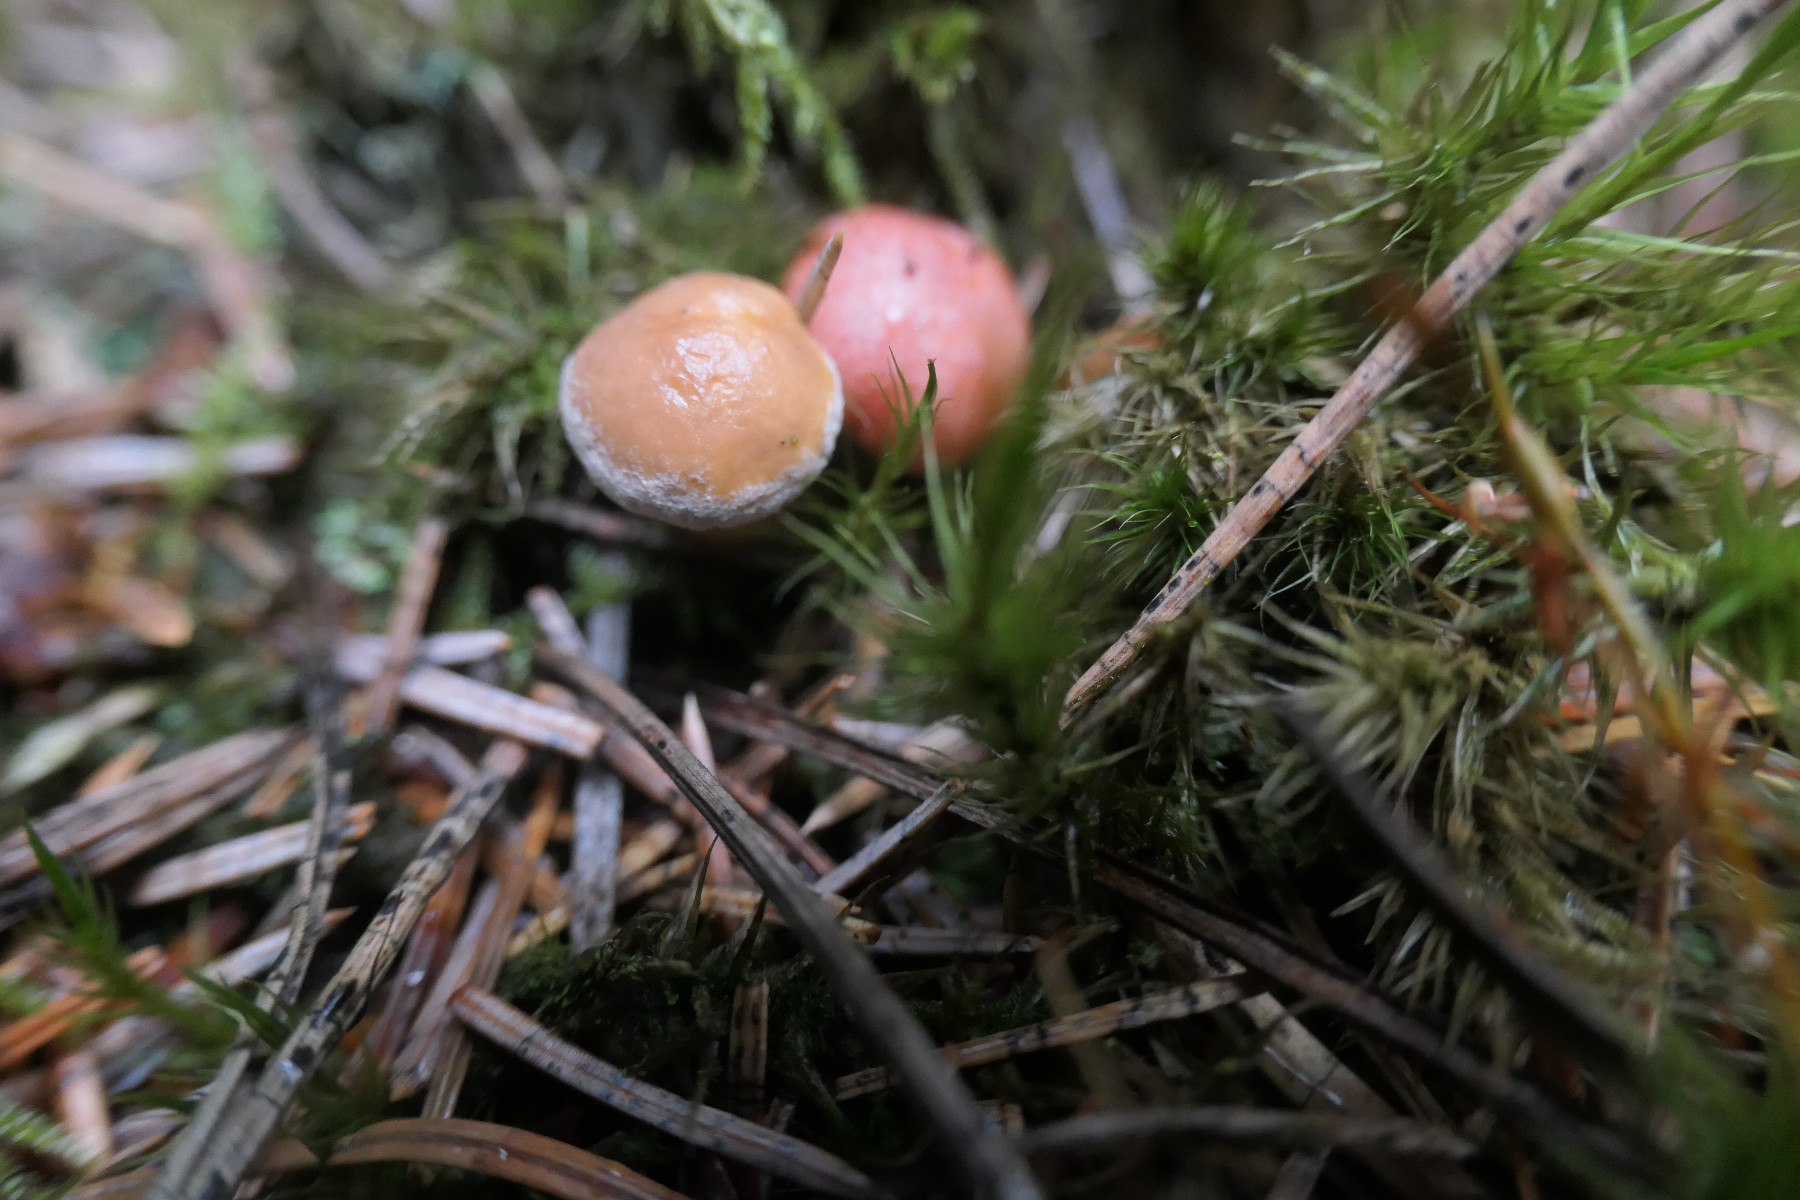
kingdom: Fungi
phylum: Basidiomycota
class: Agaricomycetes
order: Boletales
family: Gomphidiaceae
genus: Gomphidius
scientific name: Gomphidius roseus
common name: rosenrød slimslør
